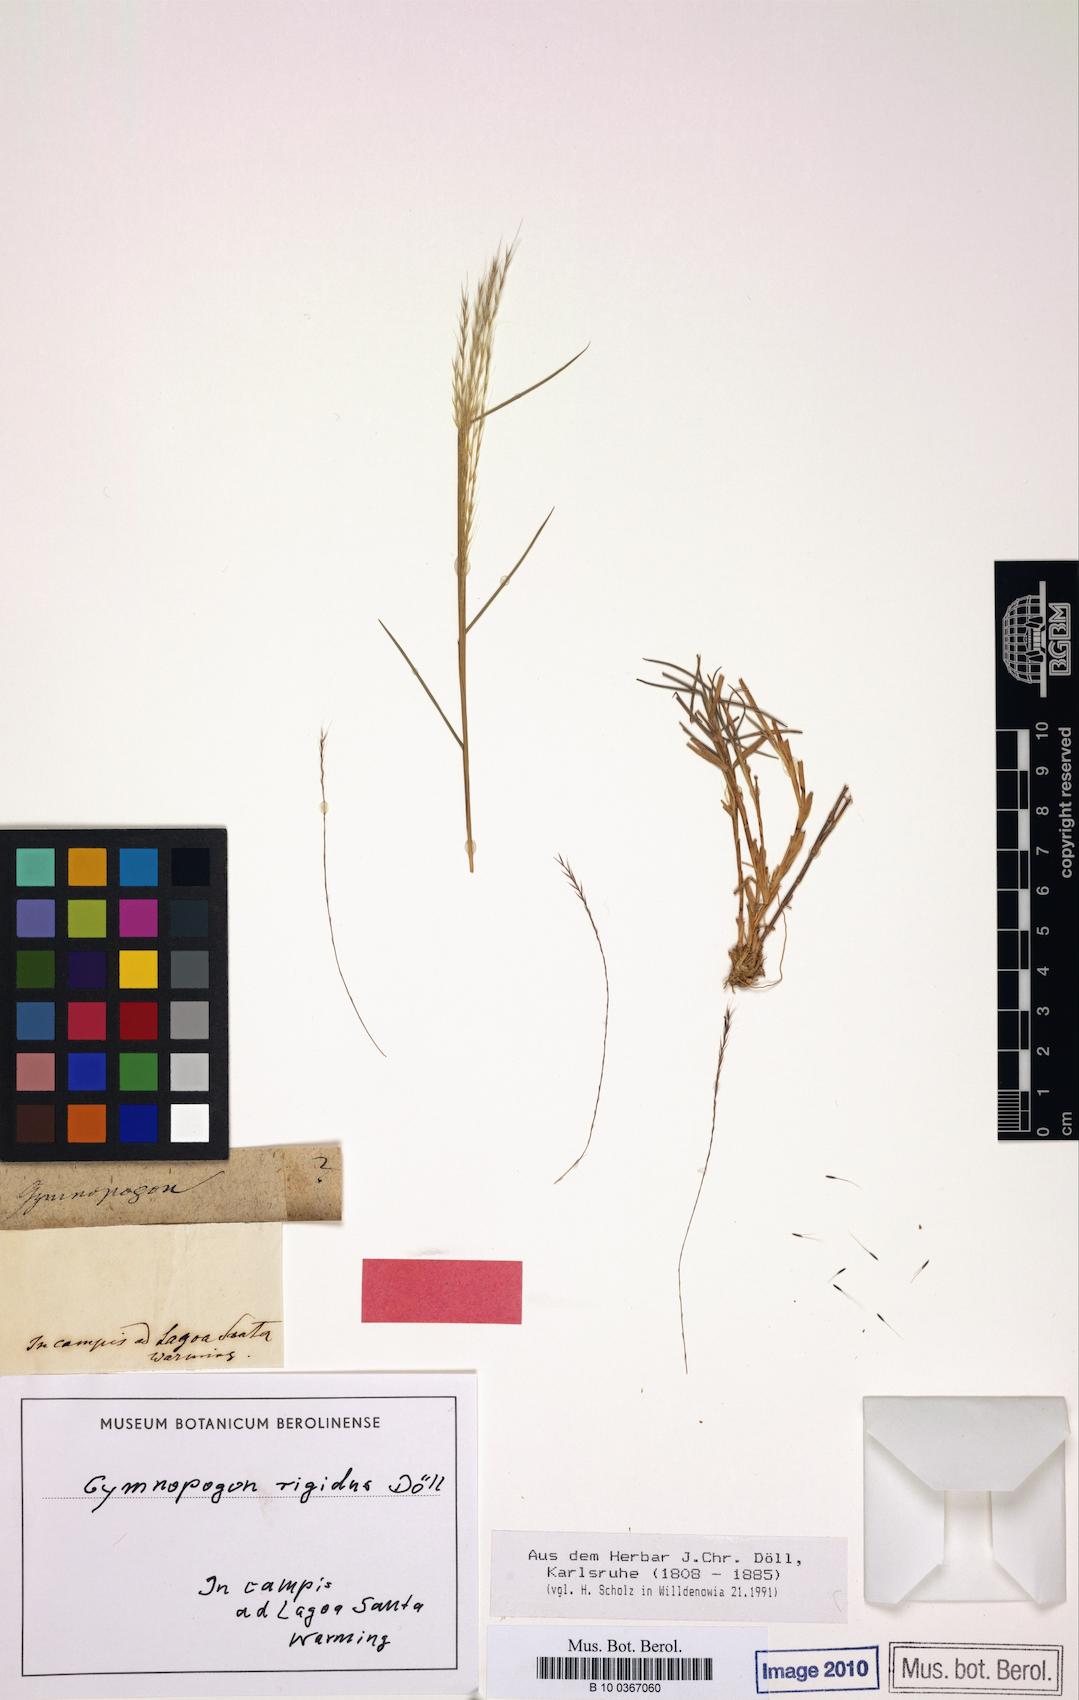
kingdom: Plantae
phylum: Tracheophyta
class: Liliopsida
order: Poales
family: Poaceae
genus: Gymnopogon
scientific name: Gymnopogon doellii
